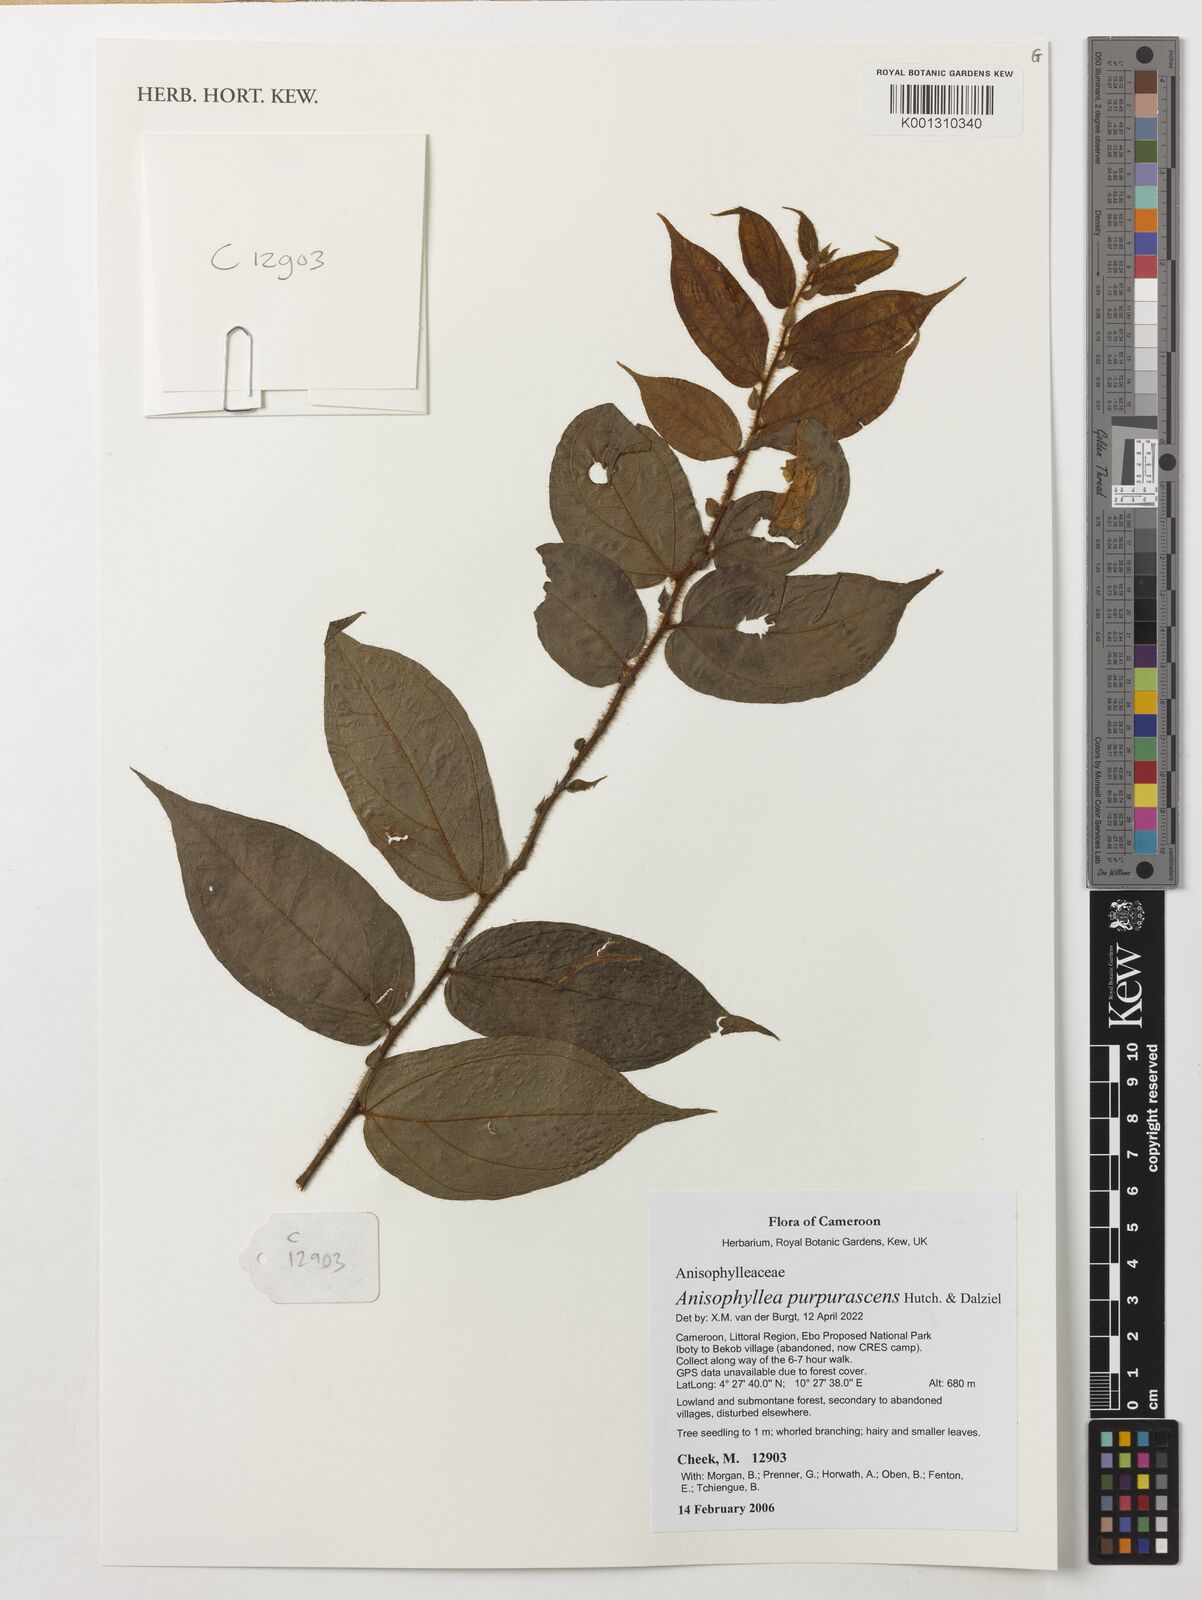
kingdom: Plantae
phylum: Tracheophyta
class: Magnoliopsida
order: Cucurbitales
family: Anisophylleaceae
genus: Anisophyllea
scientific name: Anisophyllea purpurascens
